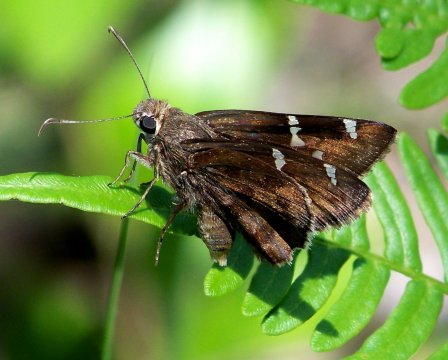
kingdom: Animalia
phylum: Arthropoda
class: Insecta
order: Lepidoptera
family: Hesperiidae
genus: Autochton
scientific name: Autochton
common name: Southern Cloudywing
